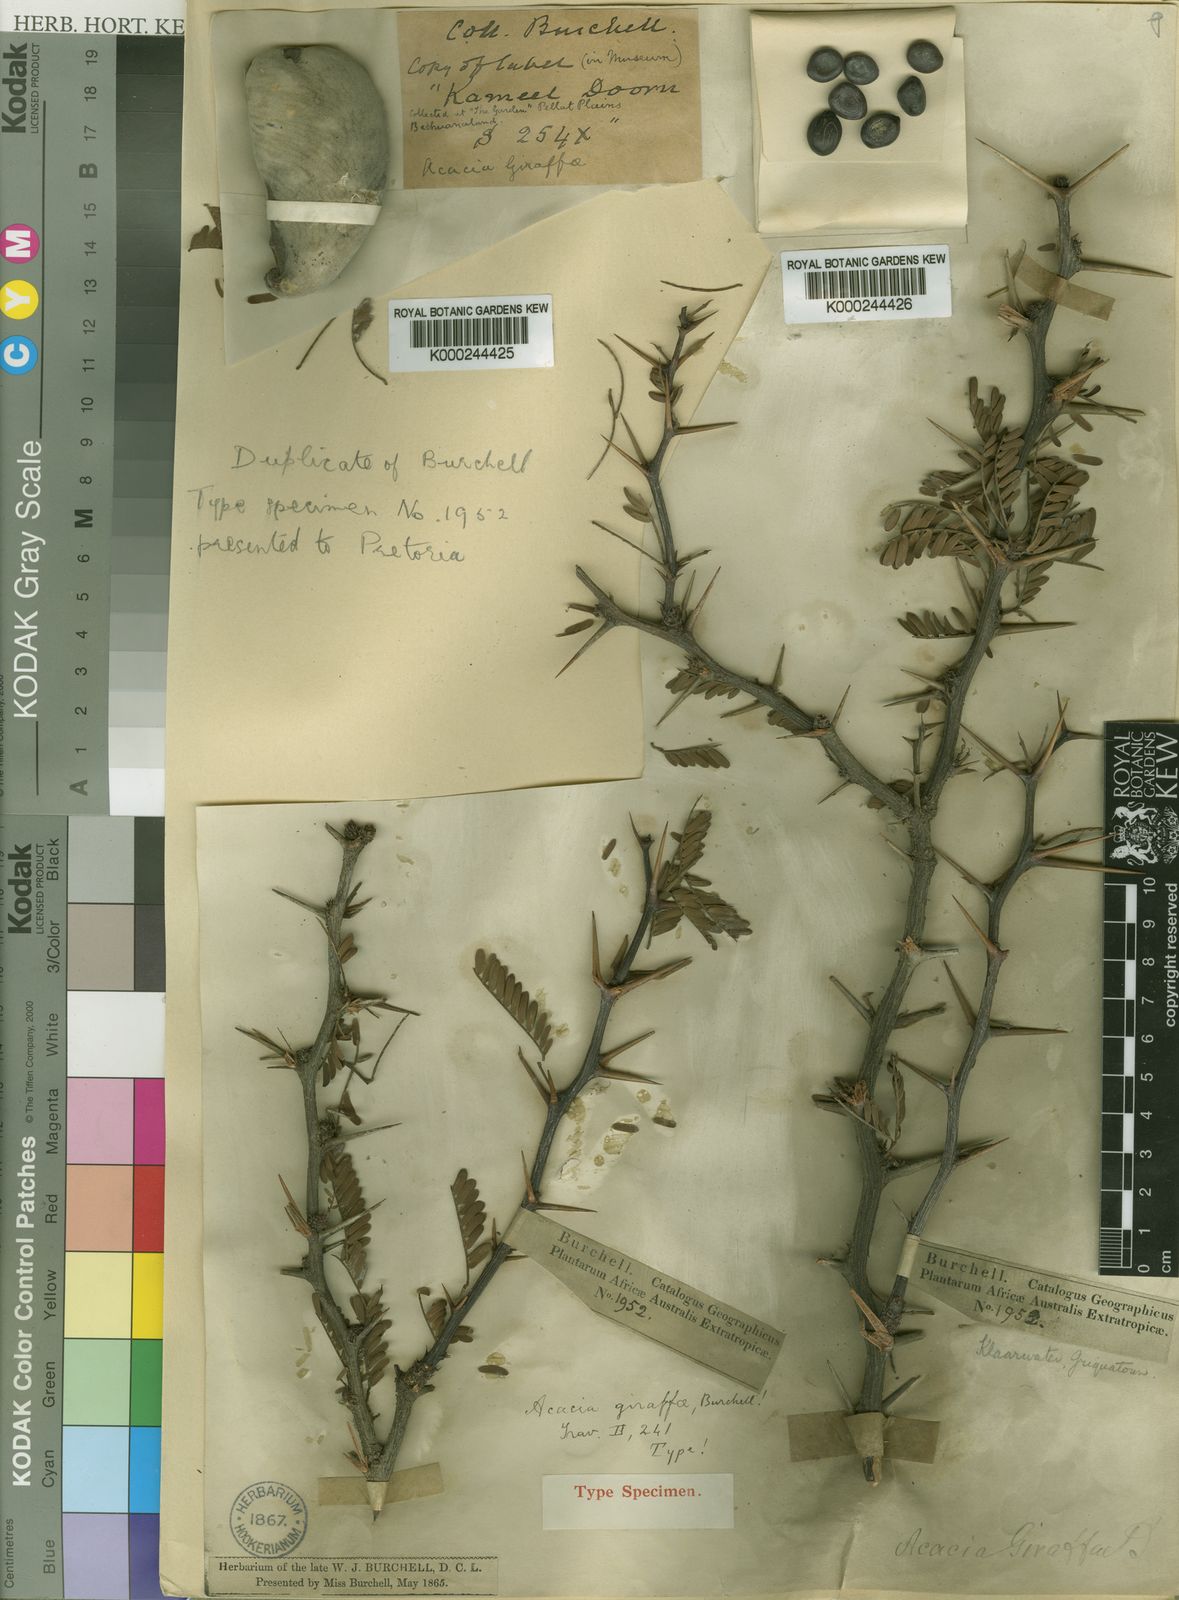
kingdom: Plantae
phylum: Tracheophyta
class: Magnoliopsida
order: Fabales
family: Fabaceae
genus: Vachellia
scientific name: Vachellia erioloba
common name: Camel thorn
